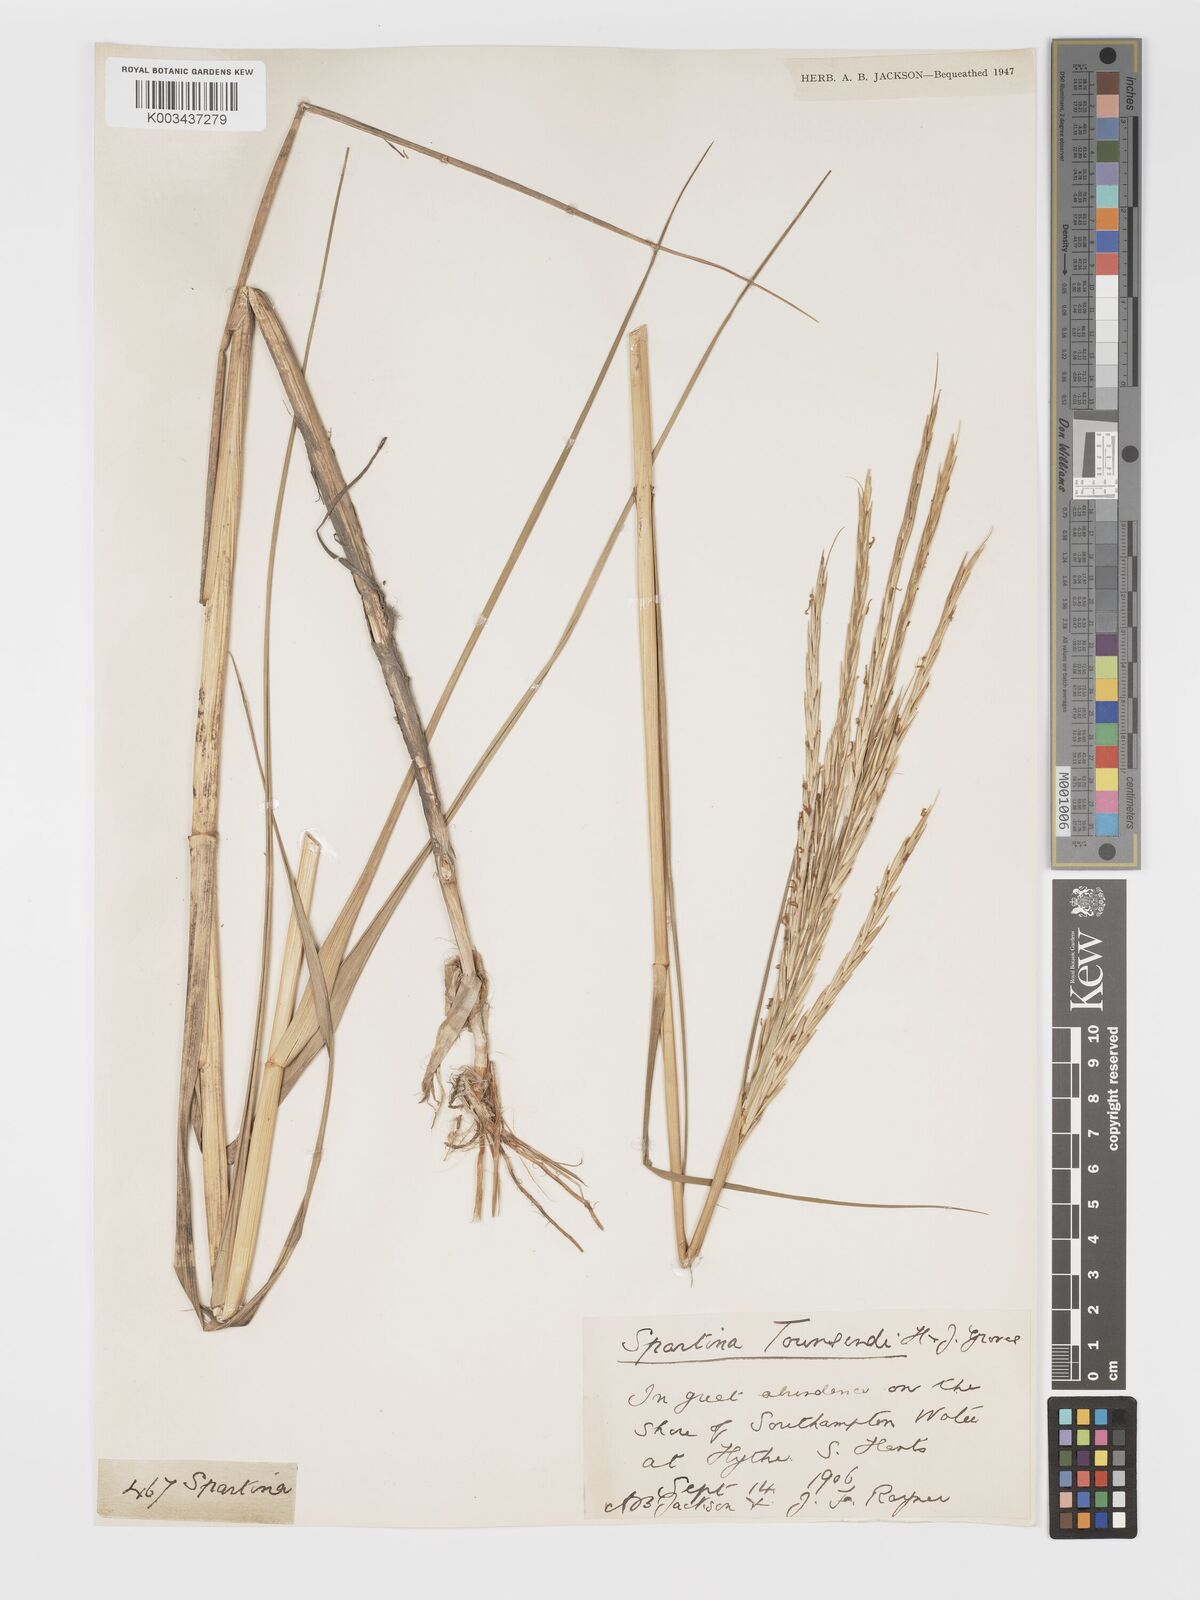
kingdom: Plantae
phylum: Tracheophyta
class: Liliopsida
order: Poales
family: Poaceae
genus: Sporobolus
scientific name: Sporobolus townsendii
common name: Townsend's cordgrass
